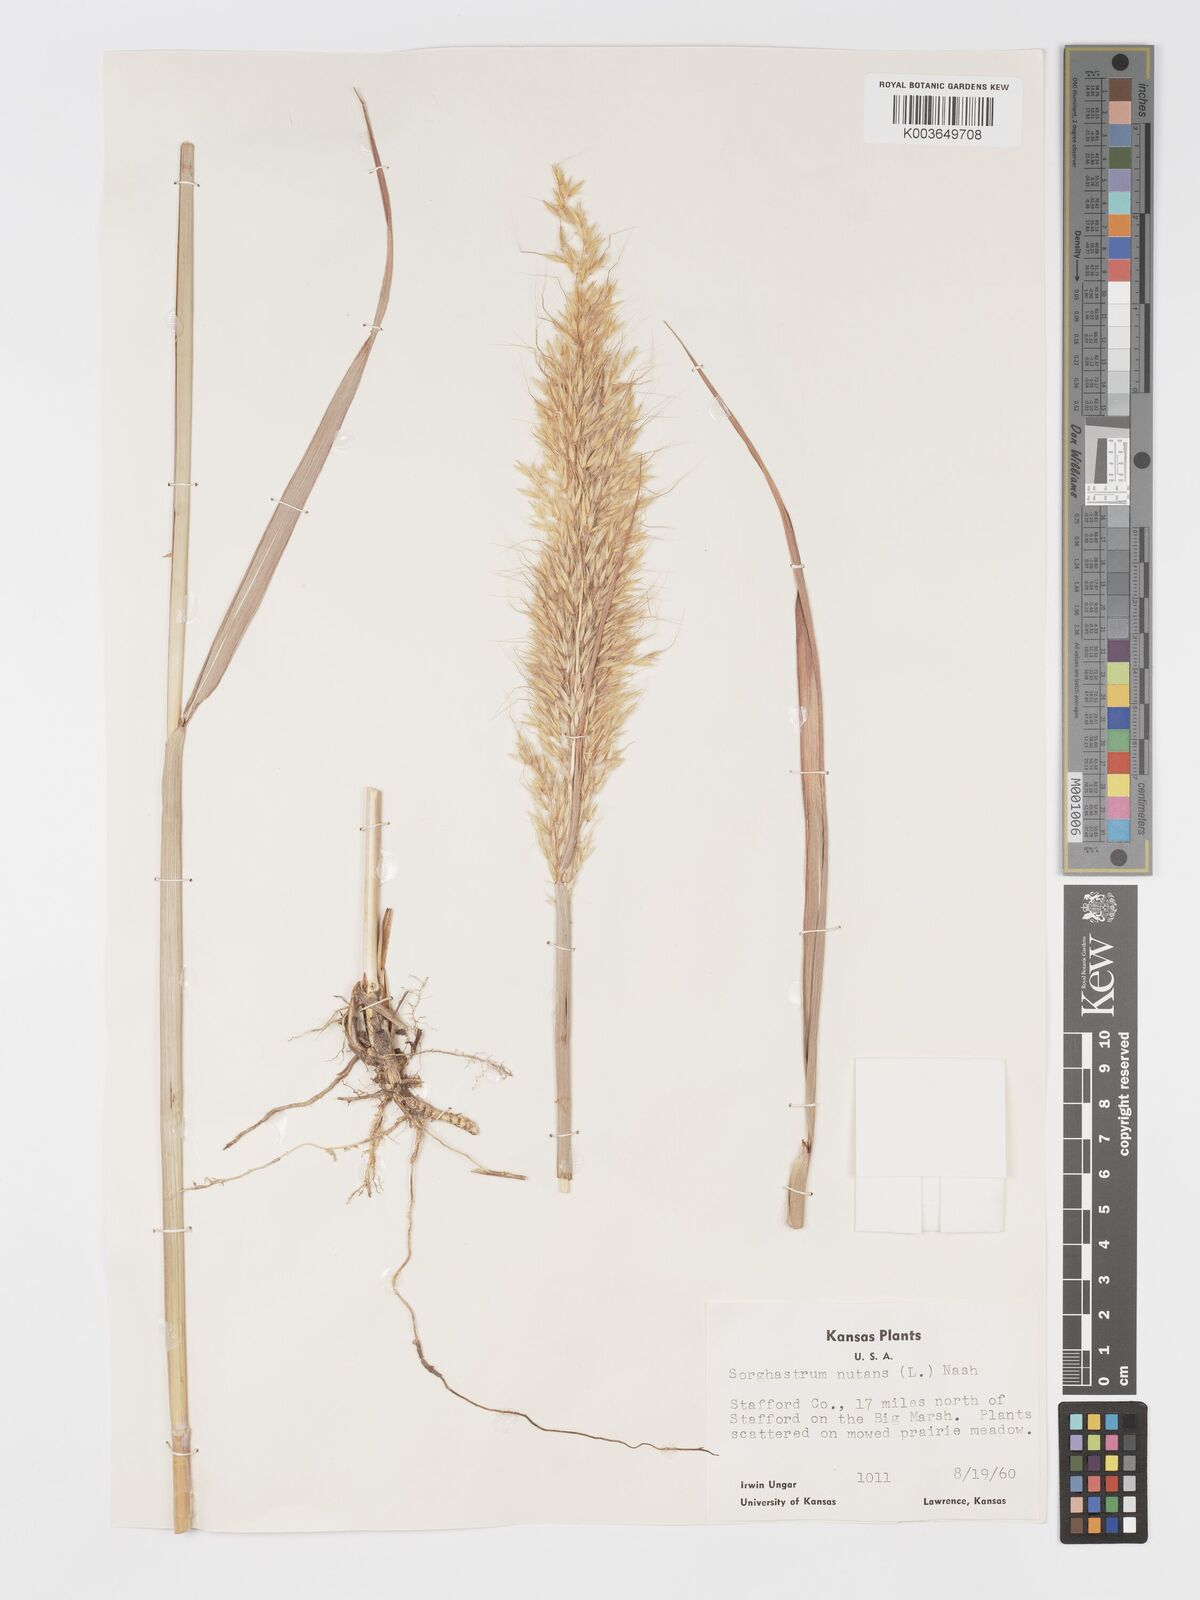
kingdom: Plantae
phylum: Tracheophyta
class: Liliopsida
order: Poales
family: Poaceae
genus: Sorghastrum
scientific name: Sorghastrum nutans
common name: Indian grass
